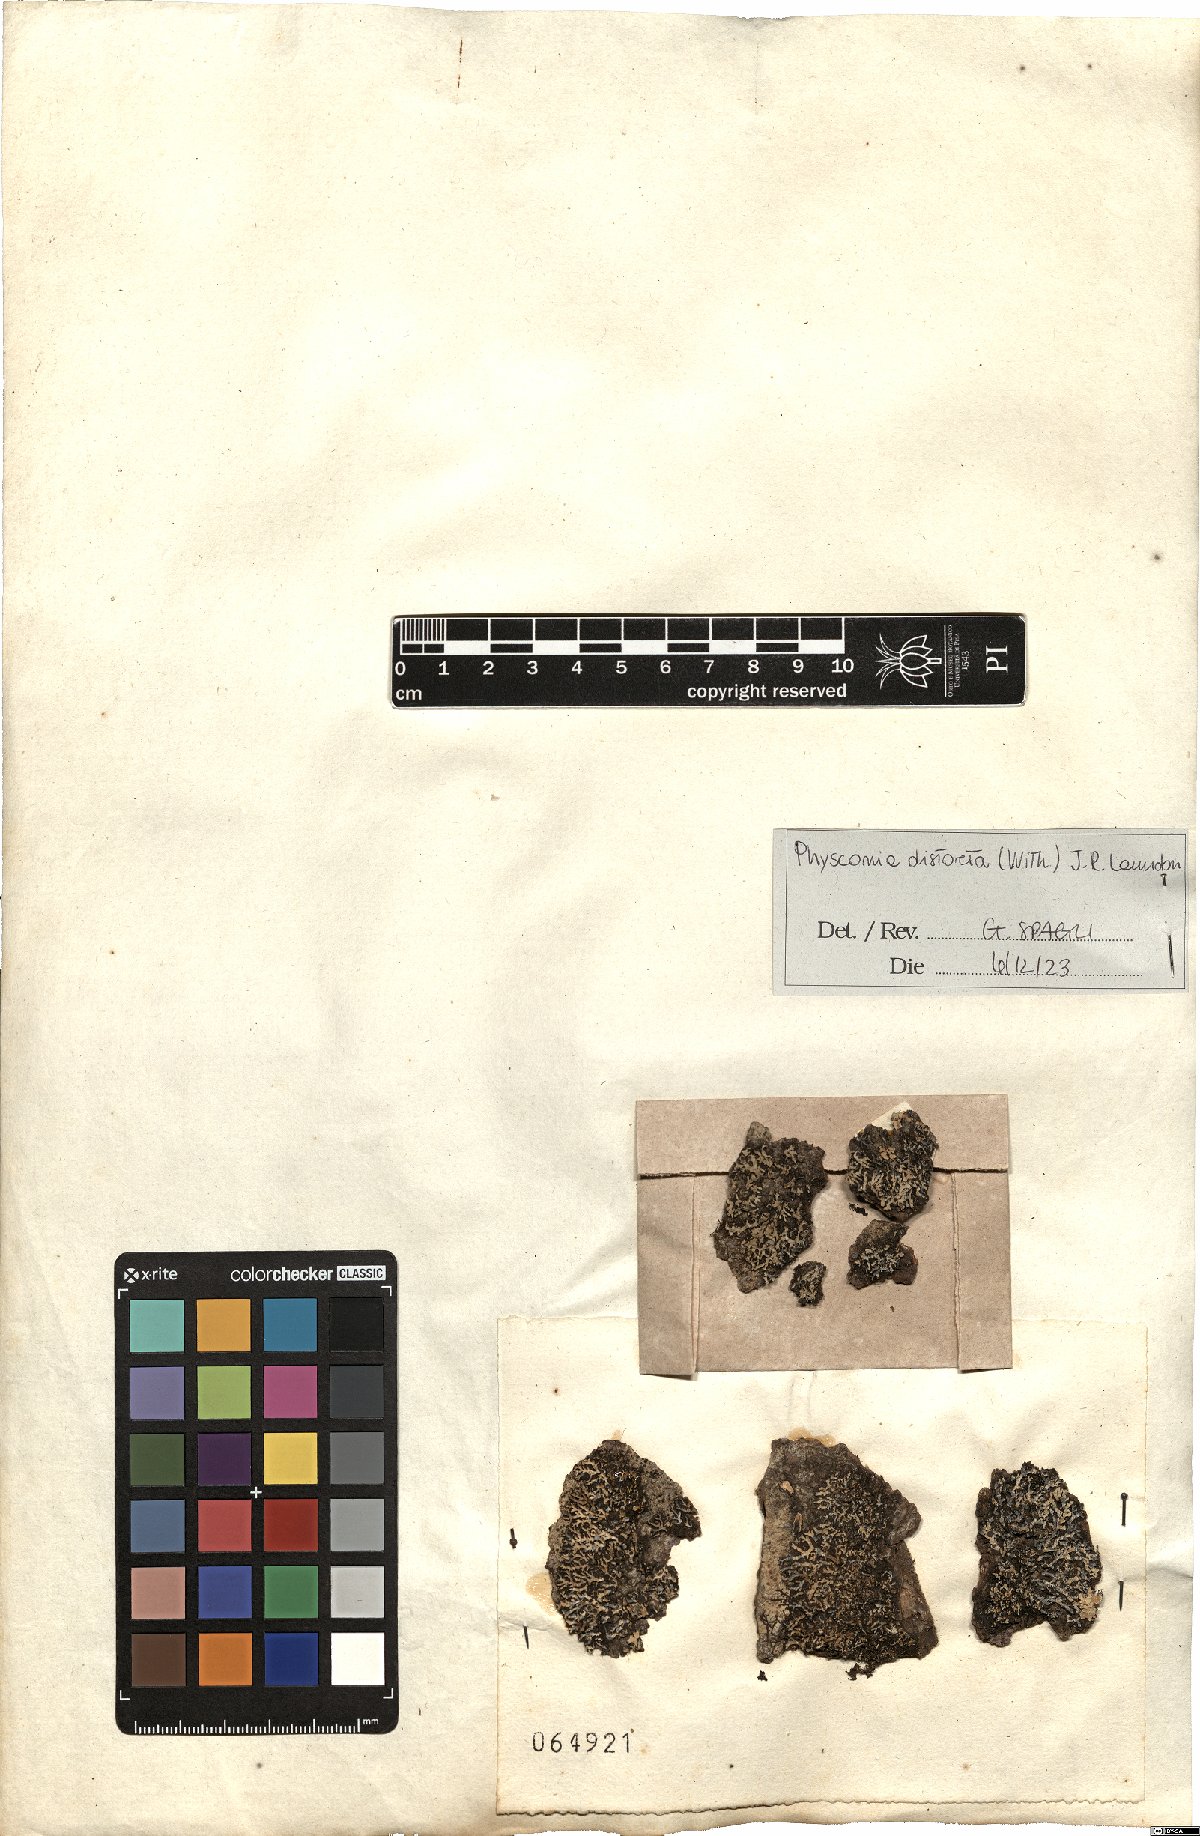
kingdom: Fungi
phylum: Ascomycota
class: Lecanoromycetes
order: Caliciales
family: Physciaceae
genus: Physconia
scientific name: Physconia distorta
